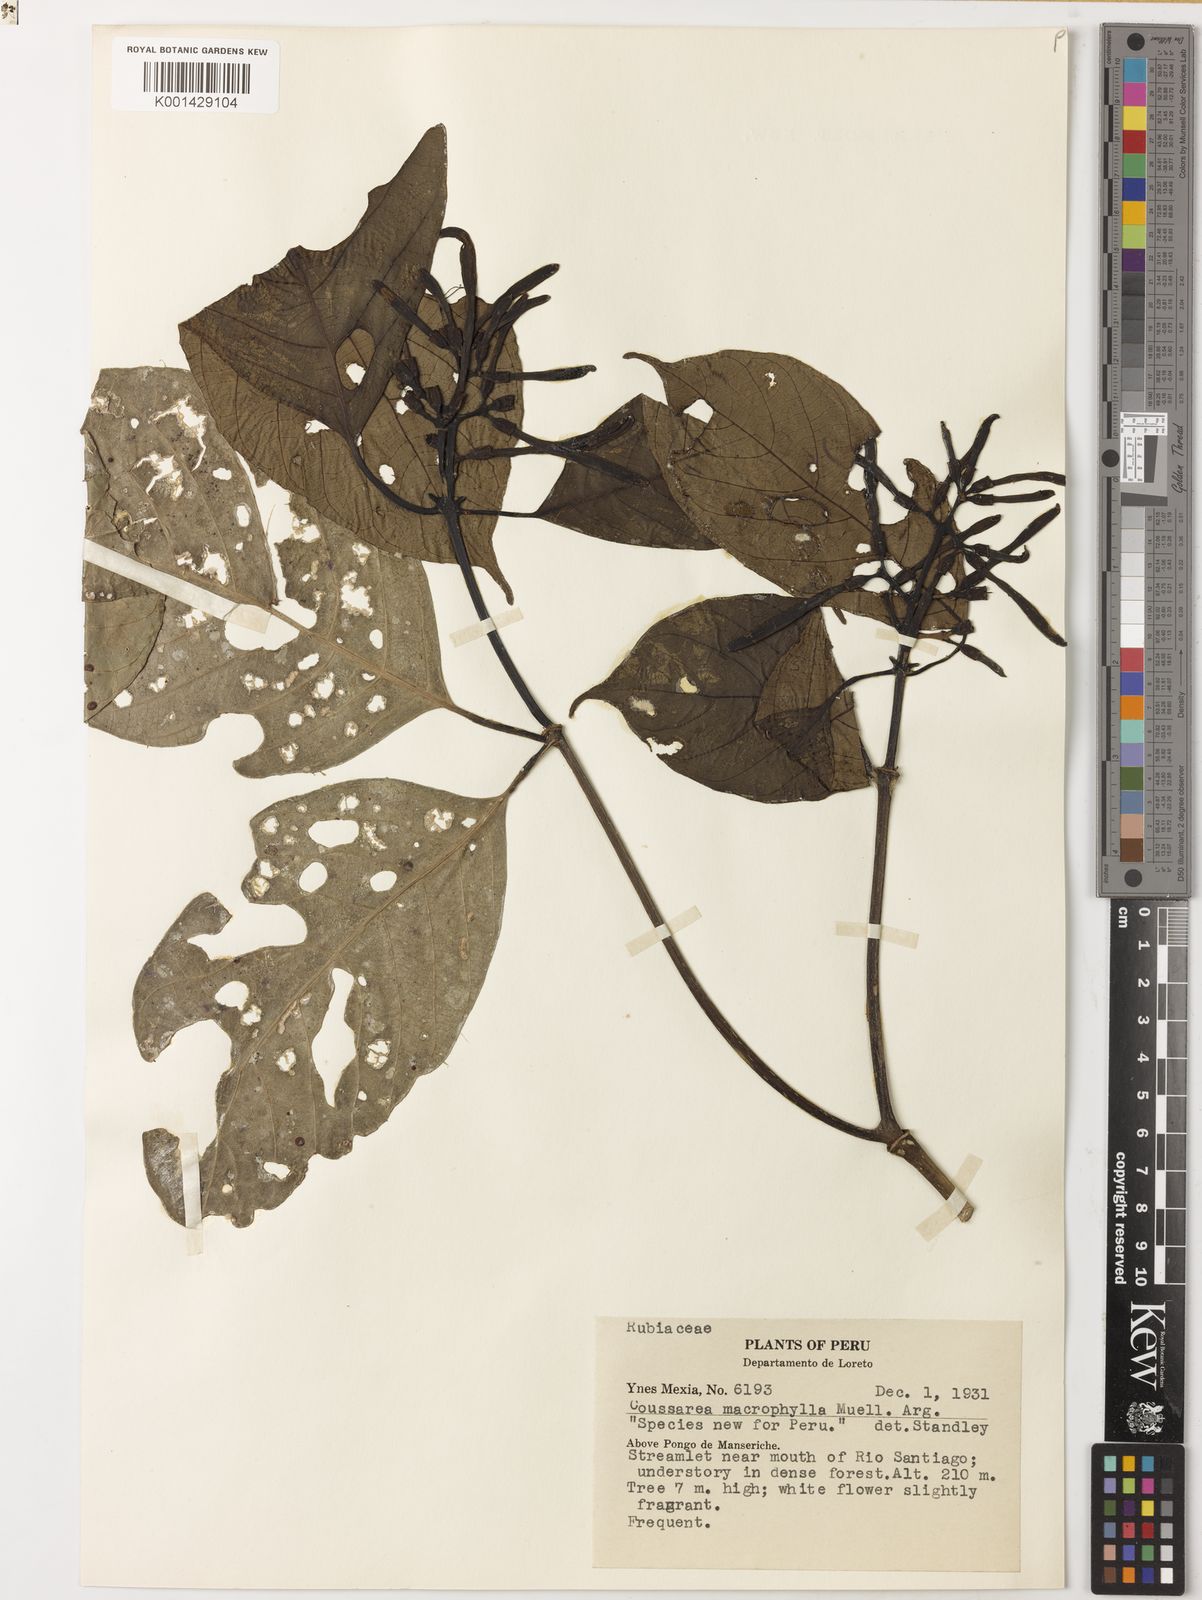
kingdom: Plantae
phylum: Tracheophyta
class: Magnoliopsida
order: Gentianales
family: Rubiaceae
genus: Coussarea
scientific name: Coussarea
